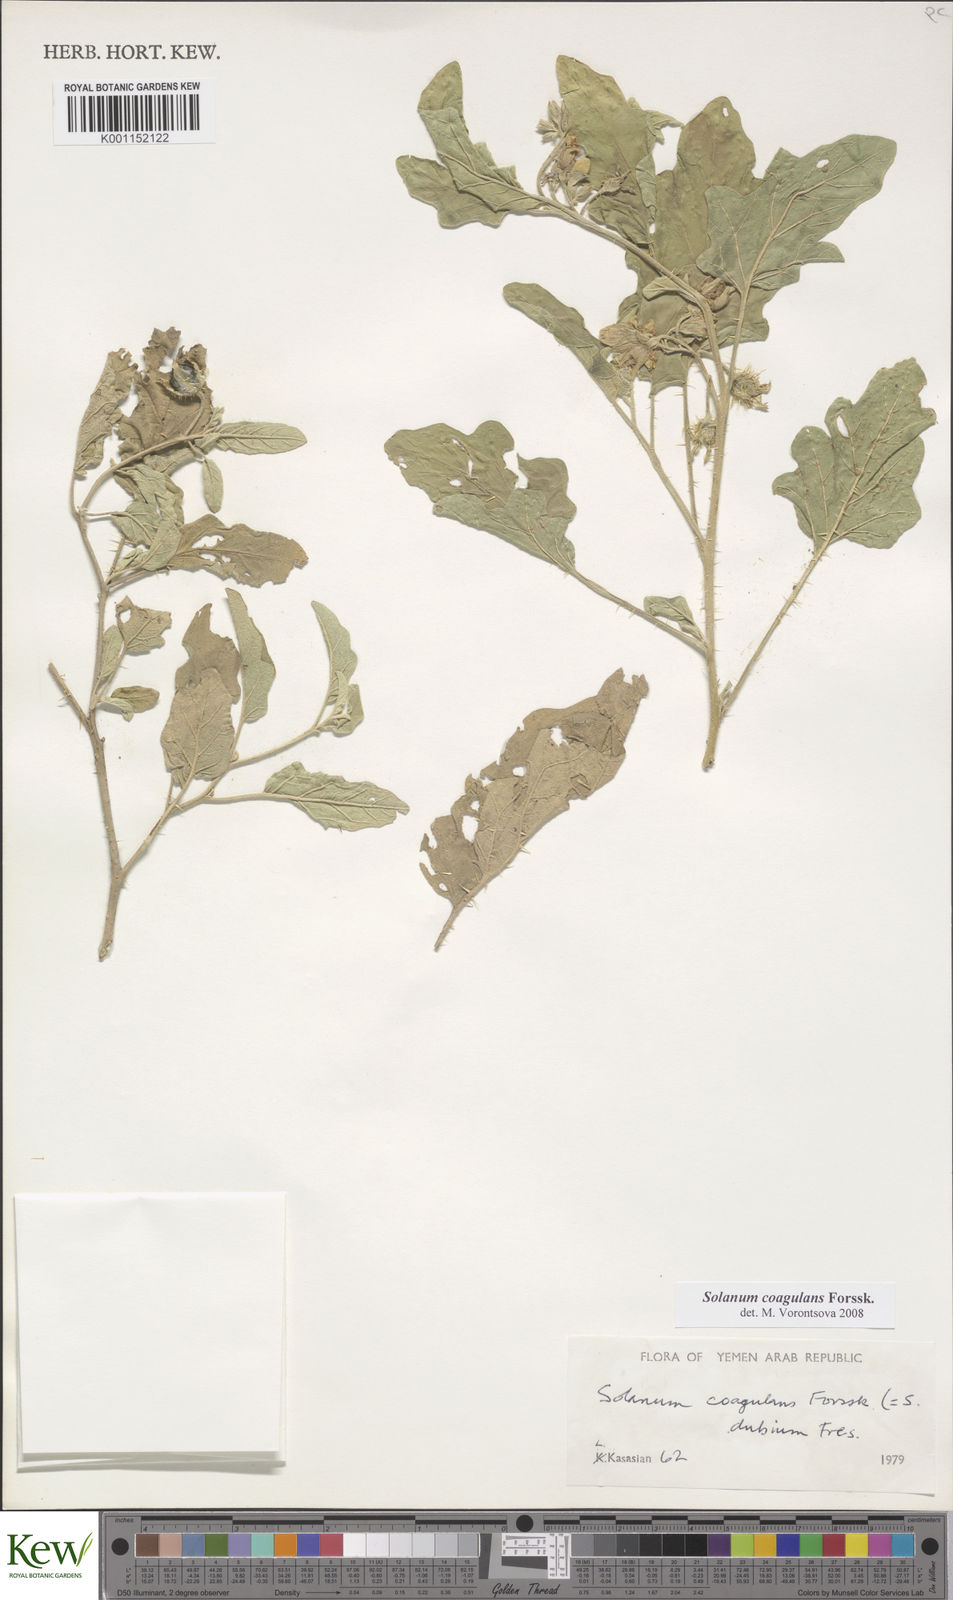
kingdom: Plantae
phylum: Tracheophyta
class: Magnoliopsida
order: Solanales
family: Solanaceae
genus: Solanum
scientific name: Solanum coagulans
